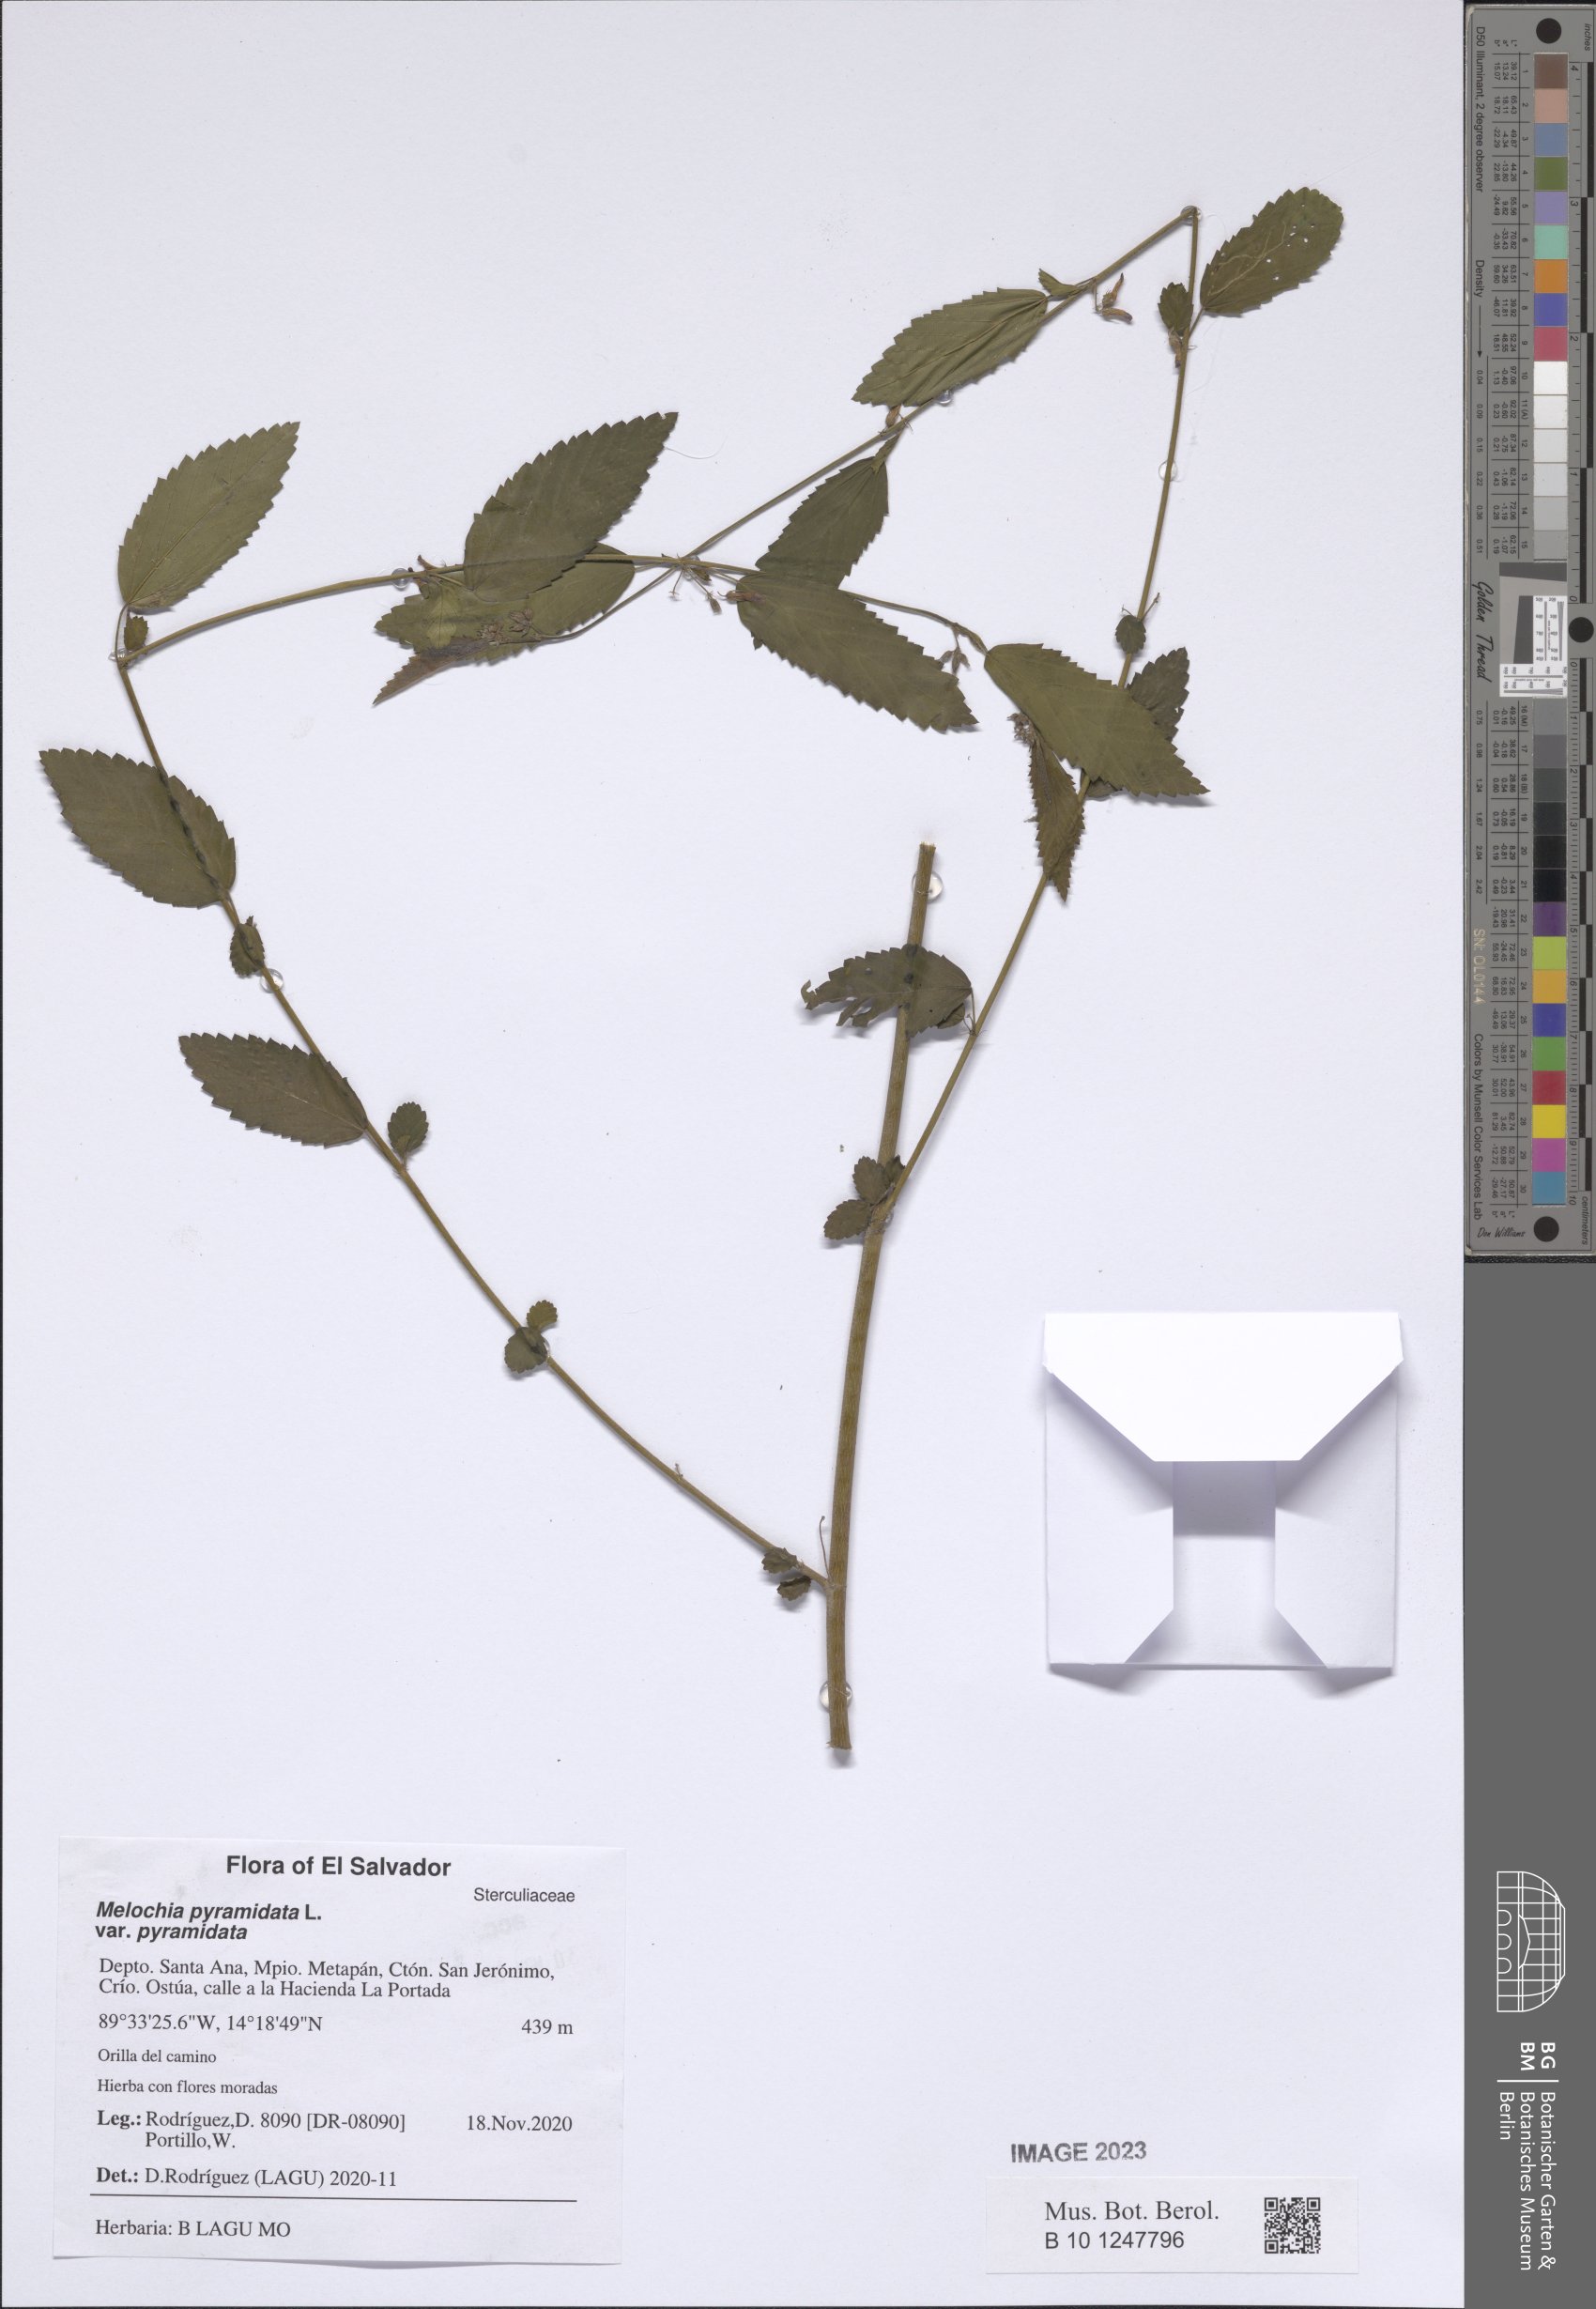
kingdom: Plantae
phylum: Tracheophyta
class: Magnoliopsida
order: Malvales
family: Malvaceae
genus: Melochia
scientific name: Melochia pyramidata
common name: Pyramidflower
